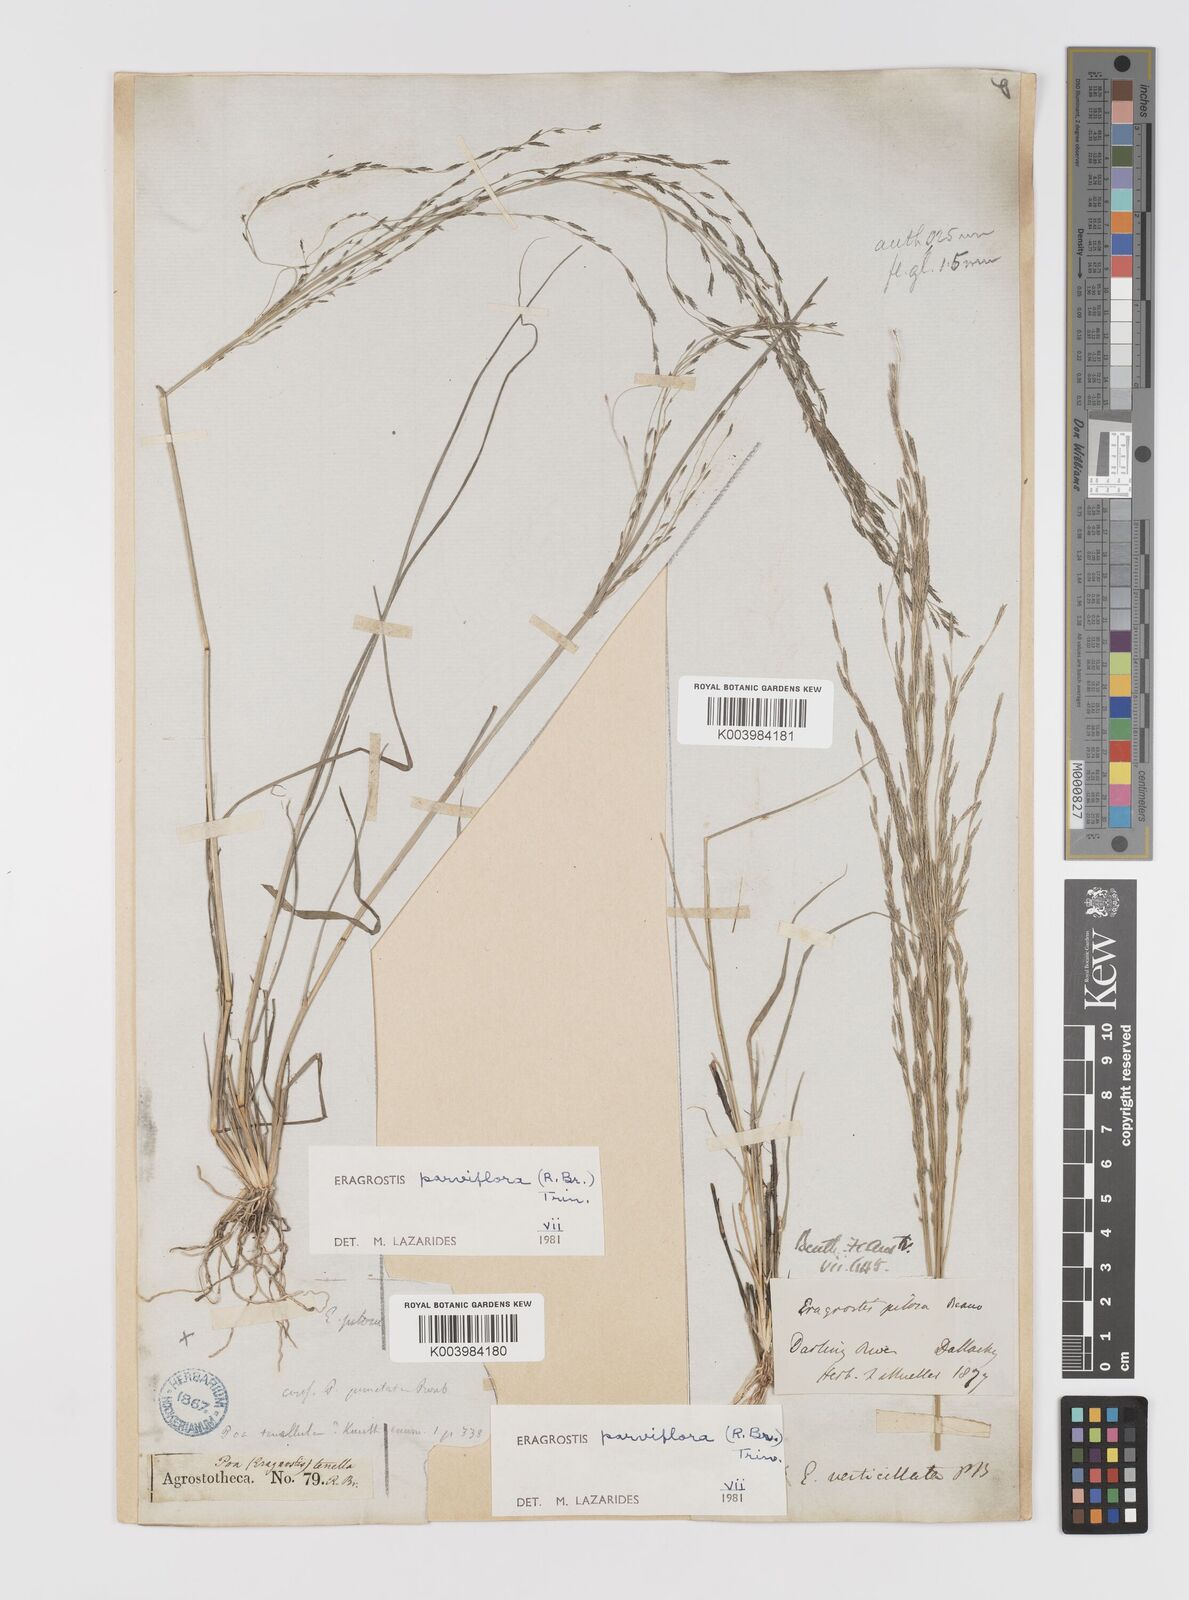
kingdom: Plantae
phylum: Tracheophyta
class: Liliopsida
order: Poales
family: Poaceae
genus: Eragrostis
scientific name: Eragrostis parviflora
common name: Weeping love-grass
